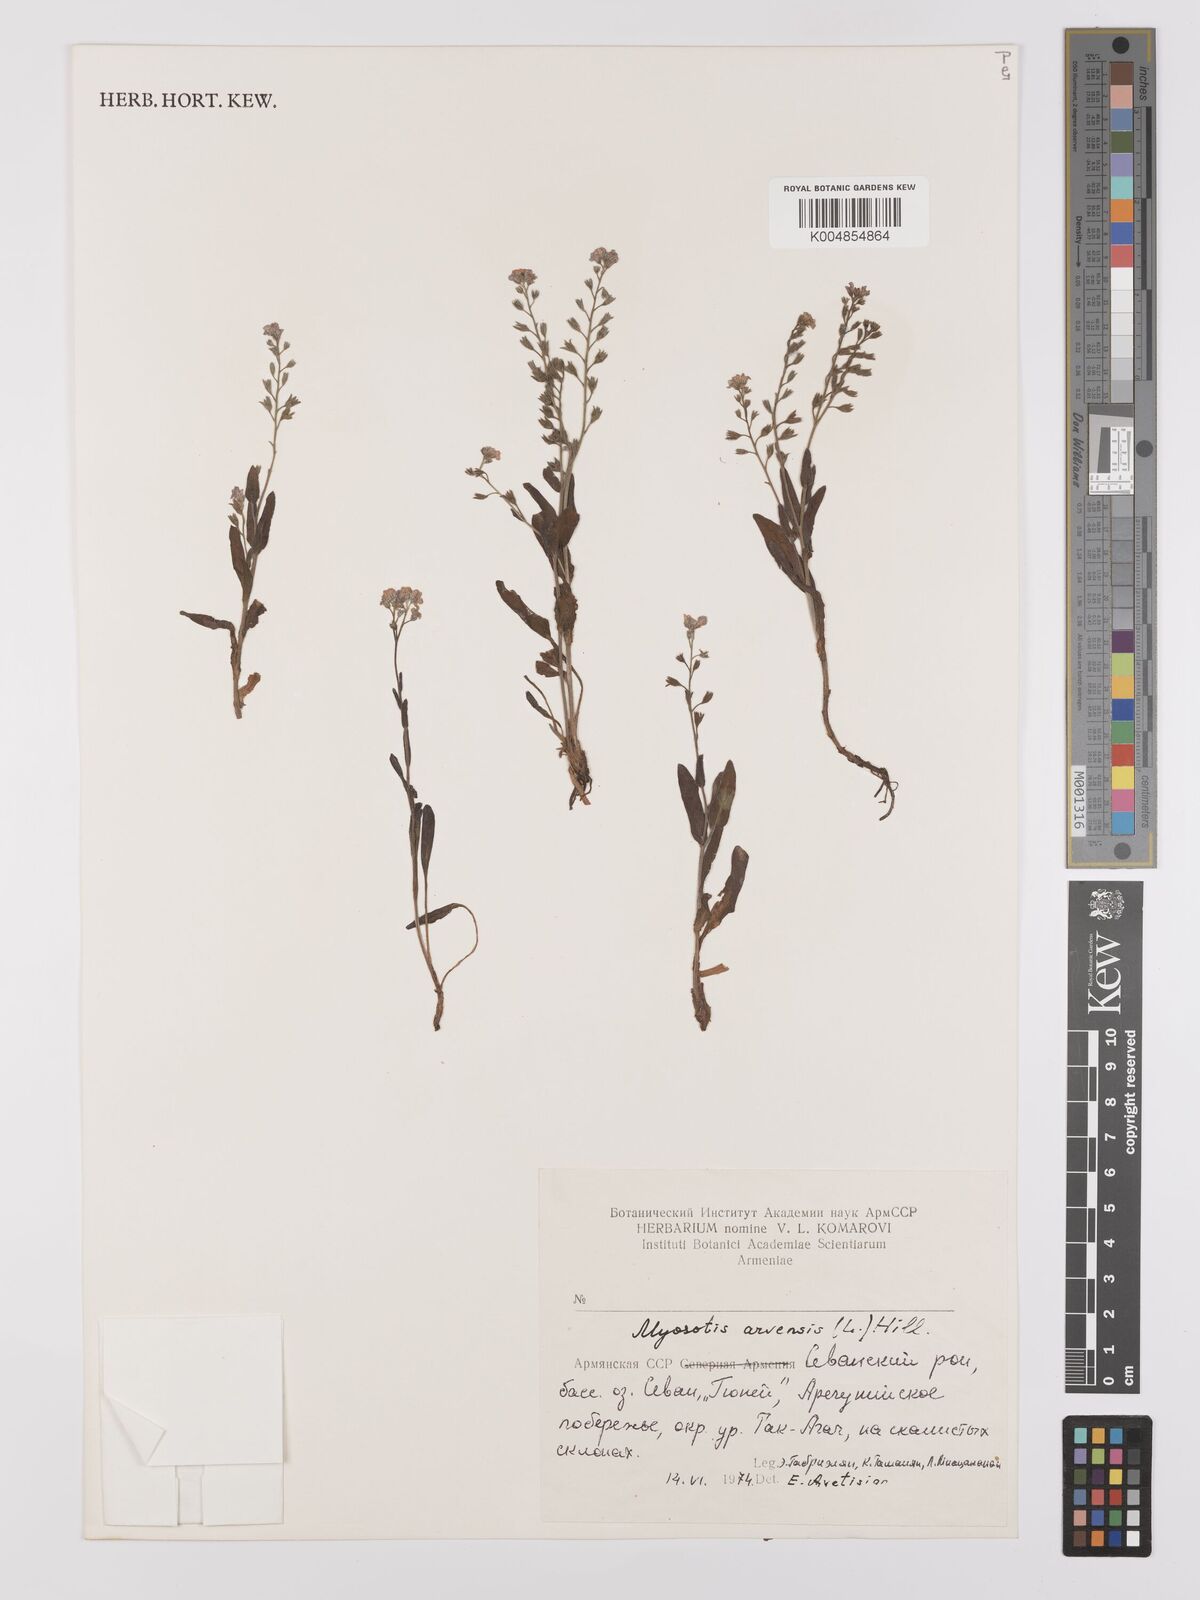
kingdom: Plantae
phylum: Tracheophyta
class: Magnoliopsida
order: Boraginales
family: Boraginaceae
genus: Myosotis
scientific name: Myosotis arvensis
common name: Field forget-me-not
